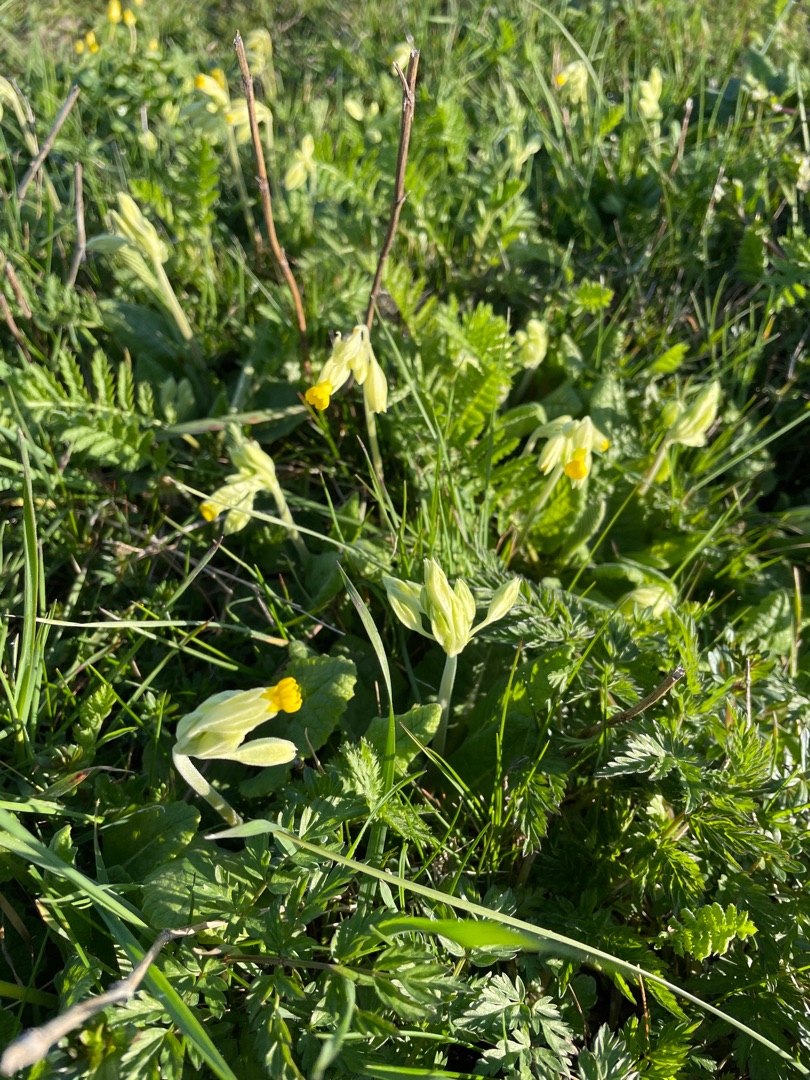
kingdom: Plantae
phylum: Tracheophyta
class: Magnoliopsida
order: Ericales
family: Primulaceae
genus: Primula
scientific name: Primula veris
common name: Hulkravet kodriver
